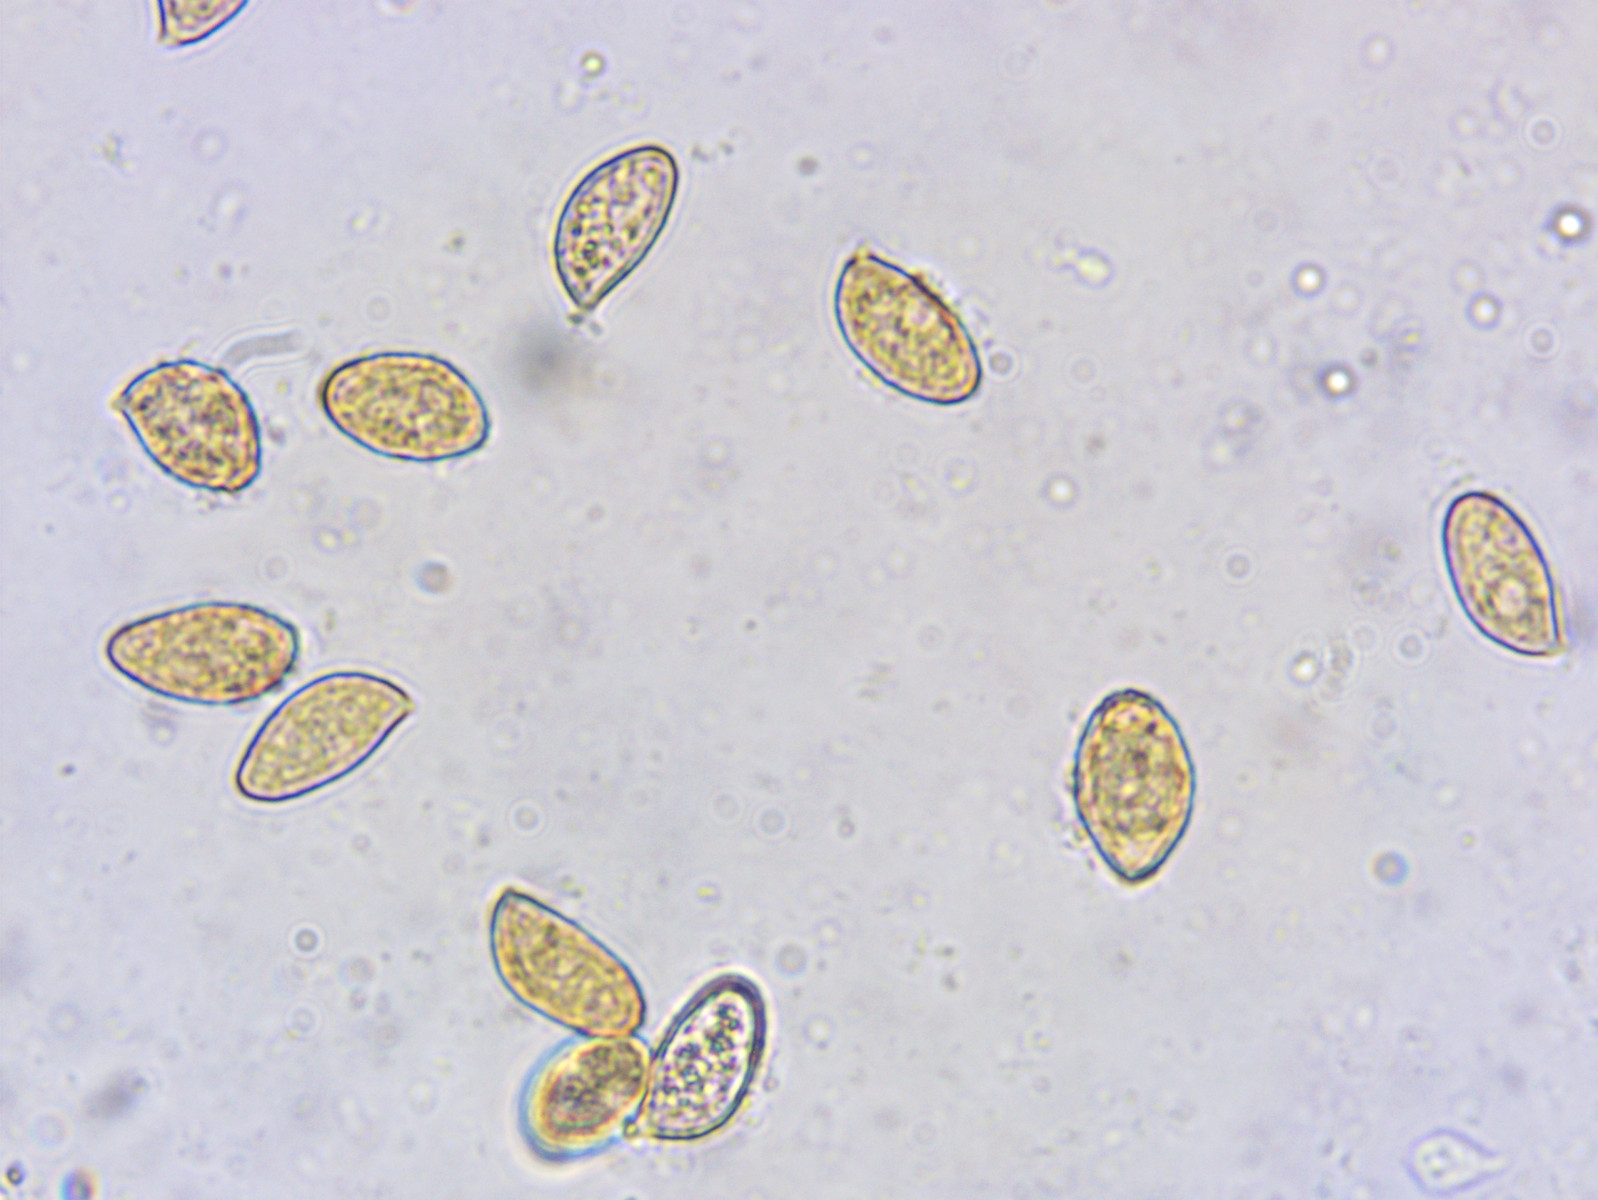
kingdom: Fungi
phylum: Basidiomycota
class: Agaricomycetes
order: Agaricales
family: Cortinariaceae
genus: Phlegmacium
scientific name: Phlegmacium vulpinum
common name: ringbæltet slørhat
